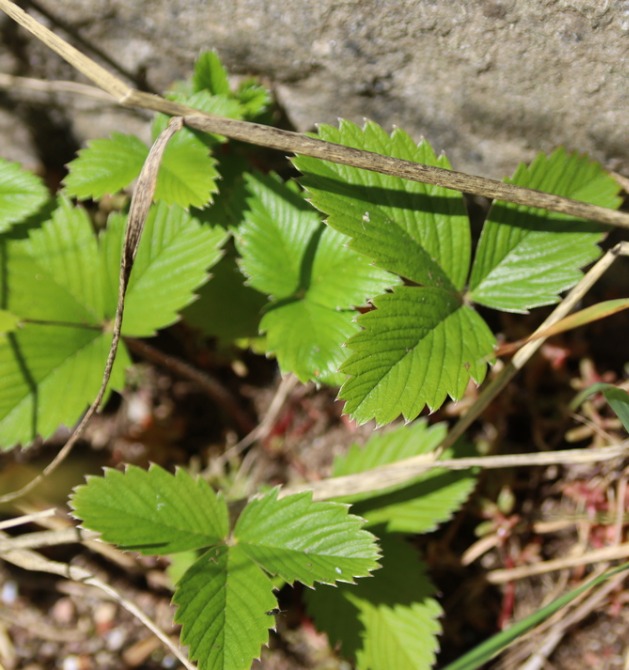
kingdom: Plantae
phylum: Tracheophyta
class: Magnoliopsida
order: Rosales
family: Rosaceae
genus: Fragaria
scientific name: Fragaria vesca
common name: Skov-jordbær
